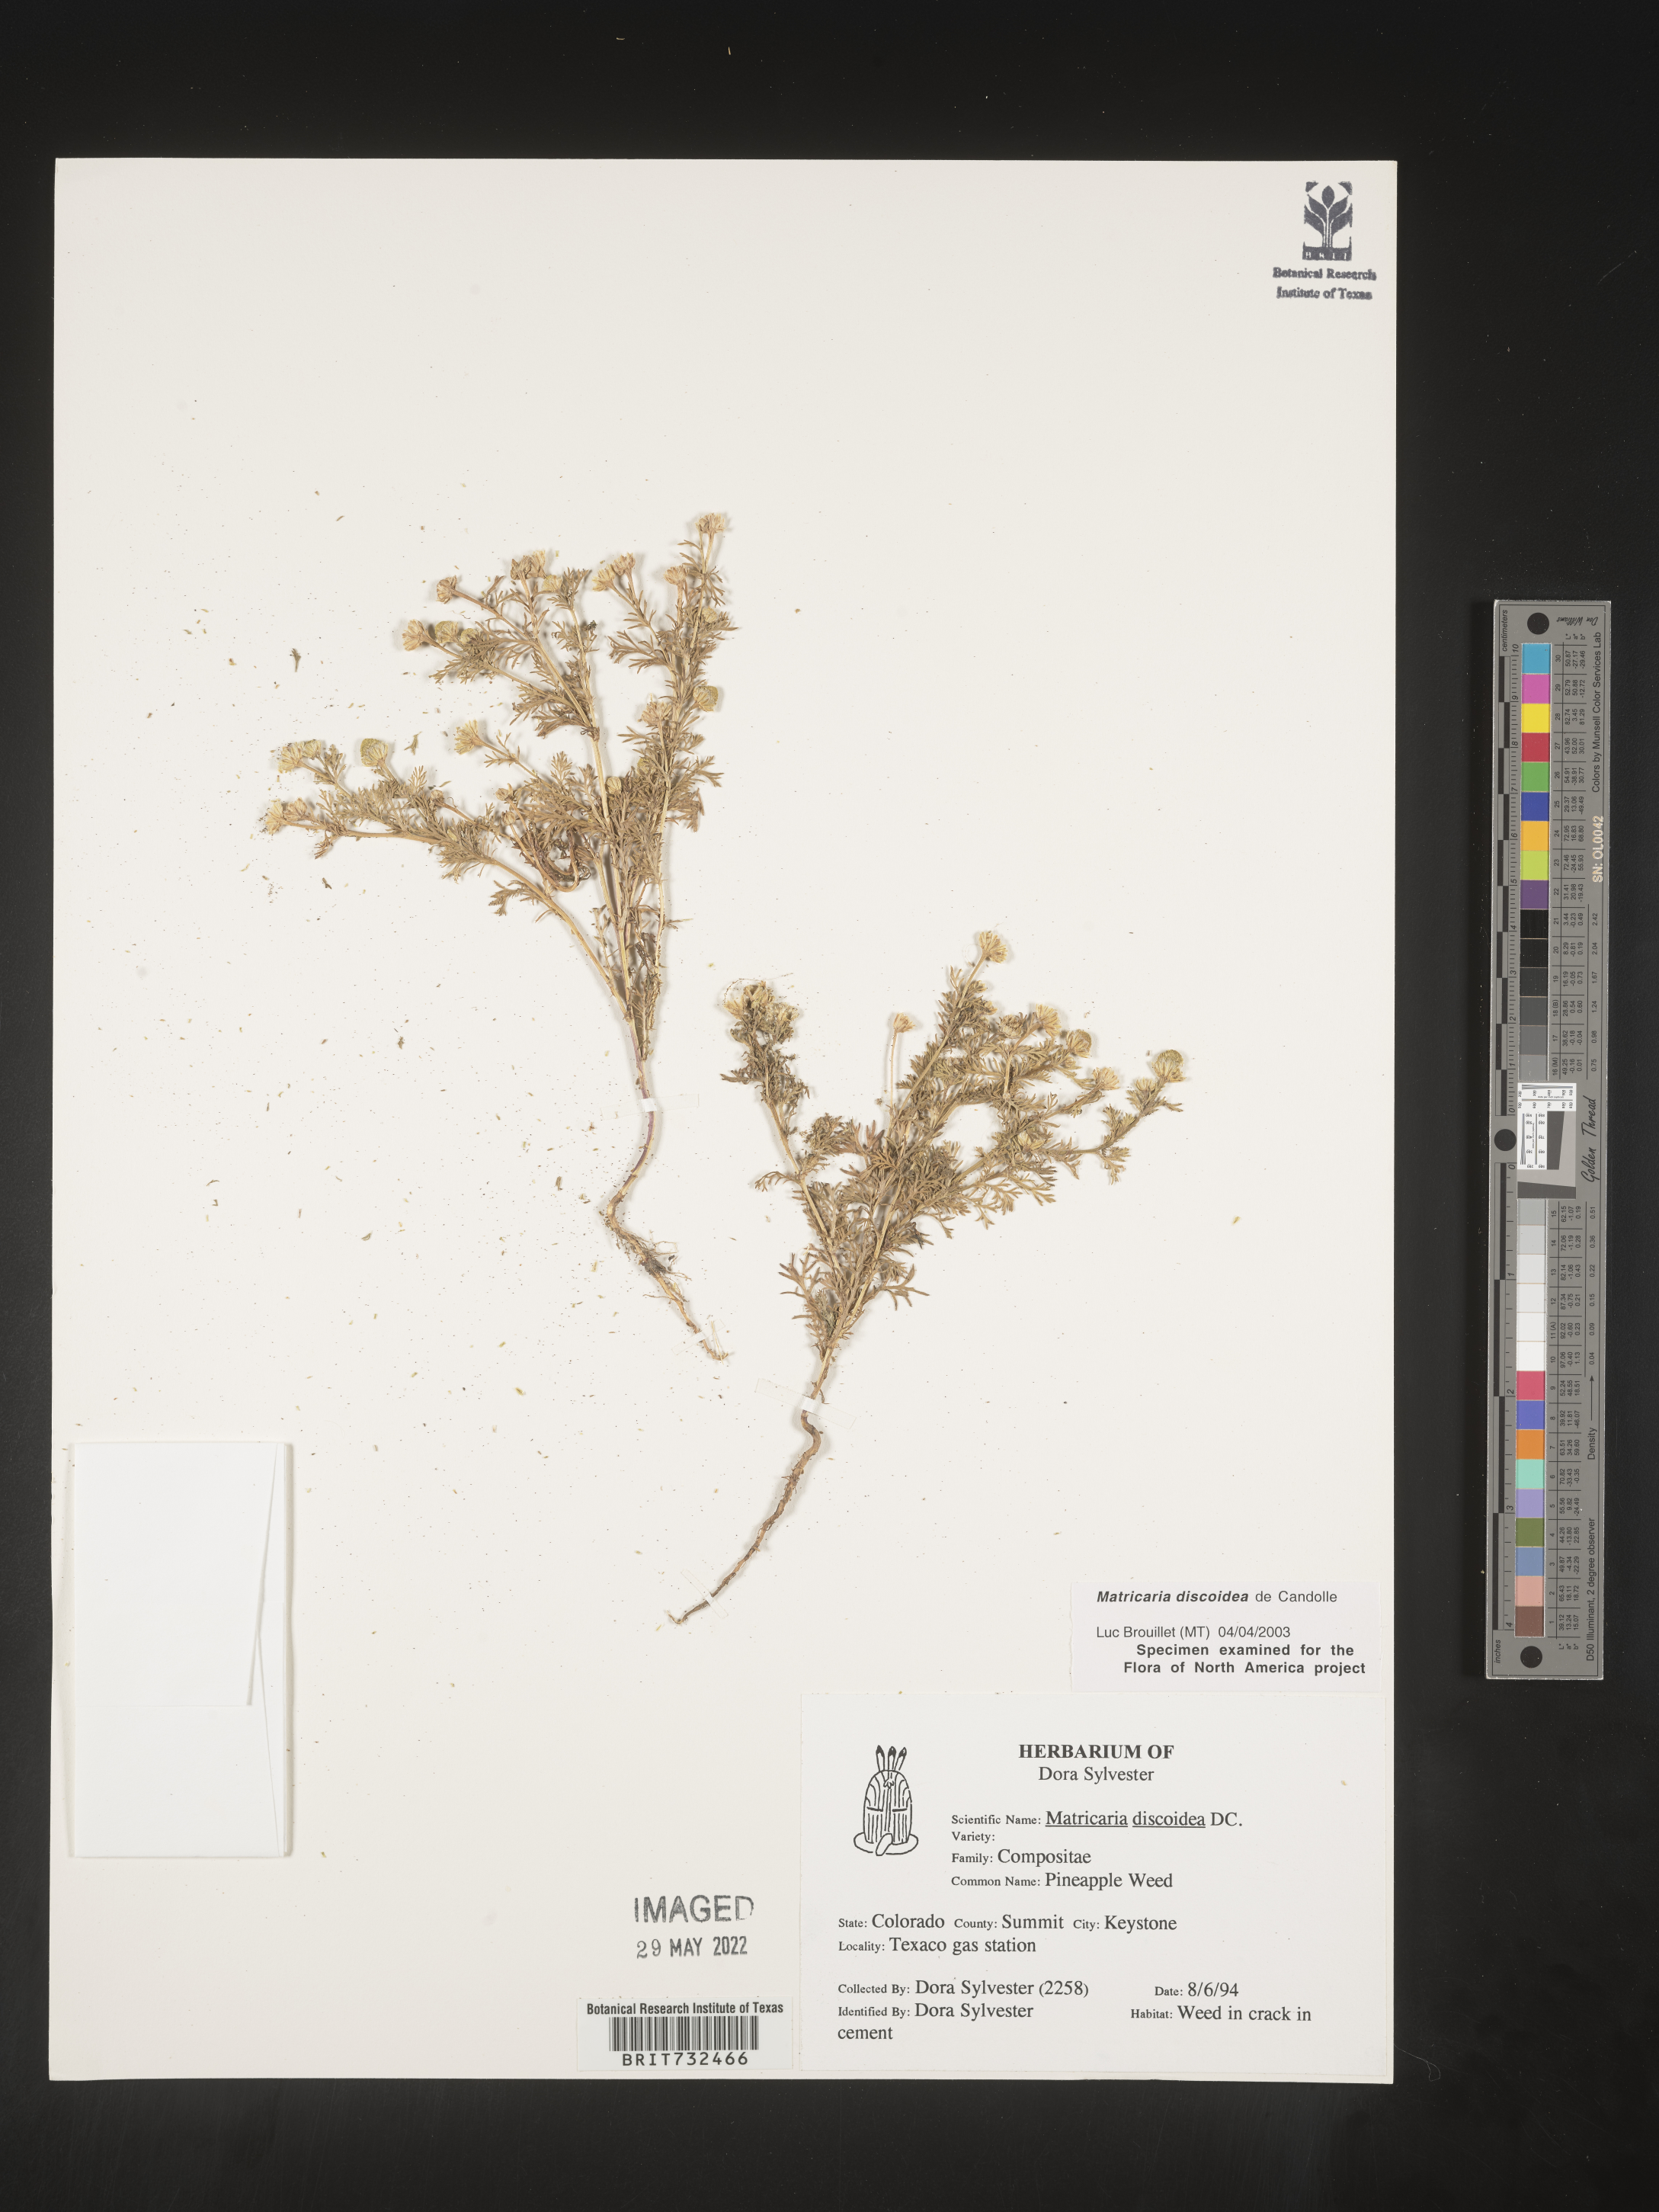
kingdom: Plantae
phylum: Tracheophyta
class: Magnoliopsida
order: Asterales
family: Asteraceae
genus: Matricaria
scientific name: Matricaria discoidea
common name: Disc mayweed
